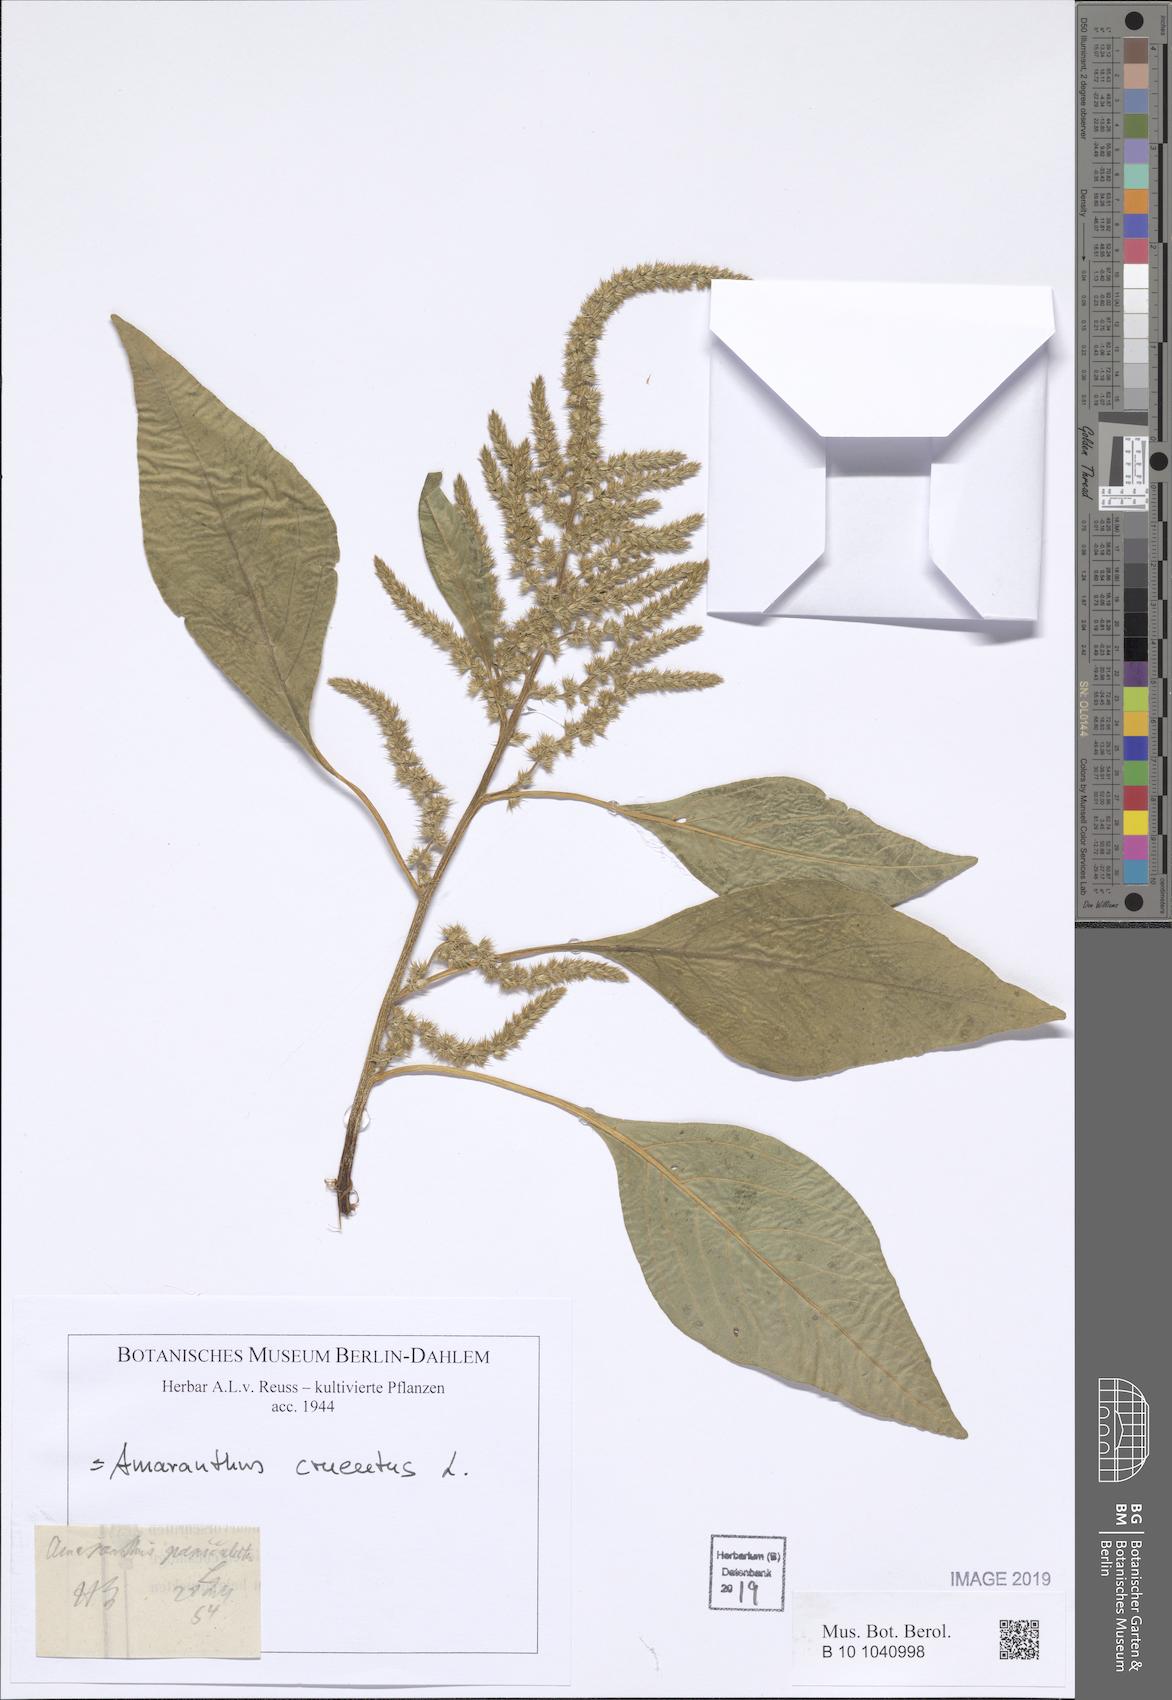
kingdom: Plantae
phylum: Tracheophyta
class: Magnoliopsida
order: Caryophyllales
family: Amaranthaceae
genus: Amaranthus
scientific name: Amaranthus cruentus
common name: Purple amaranth
